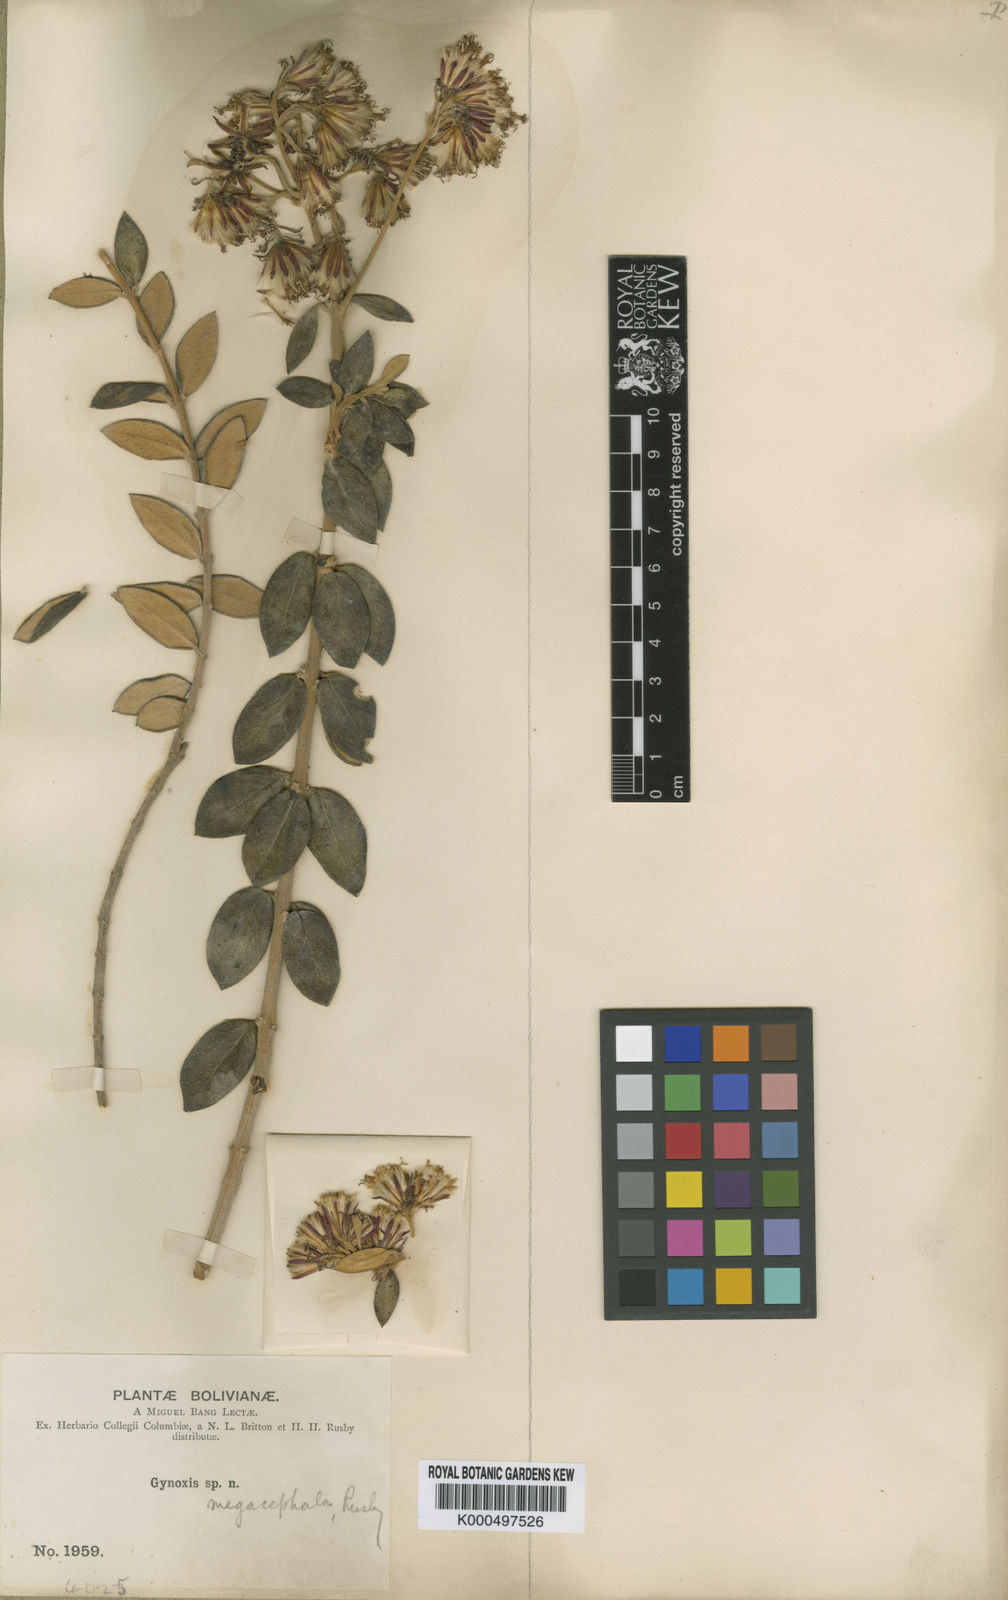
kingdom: Plantae
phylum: Tracheophyta
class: Magnoliopsida
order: Asterales
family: Asteraceae
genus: Gynoxys
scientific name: Gynoxys megacephala
